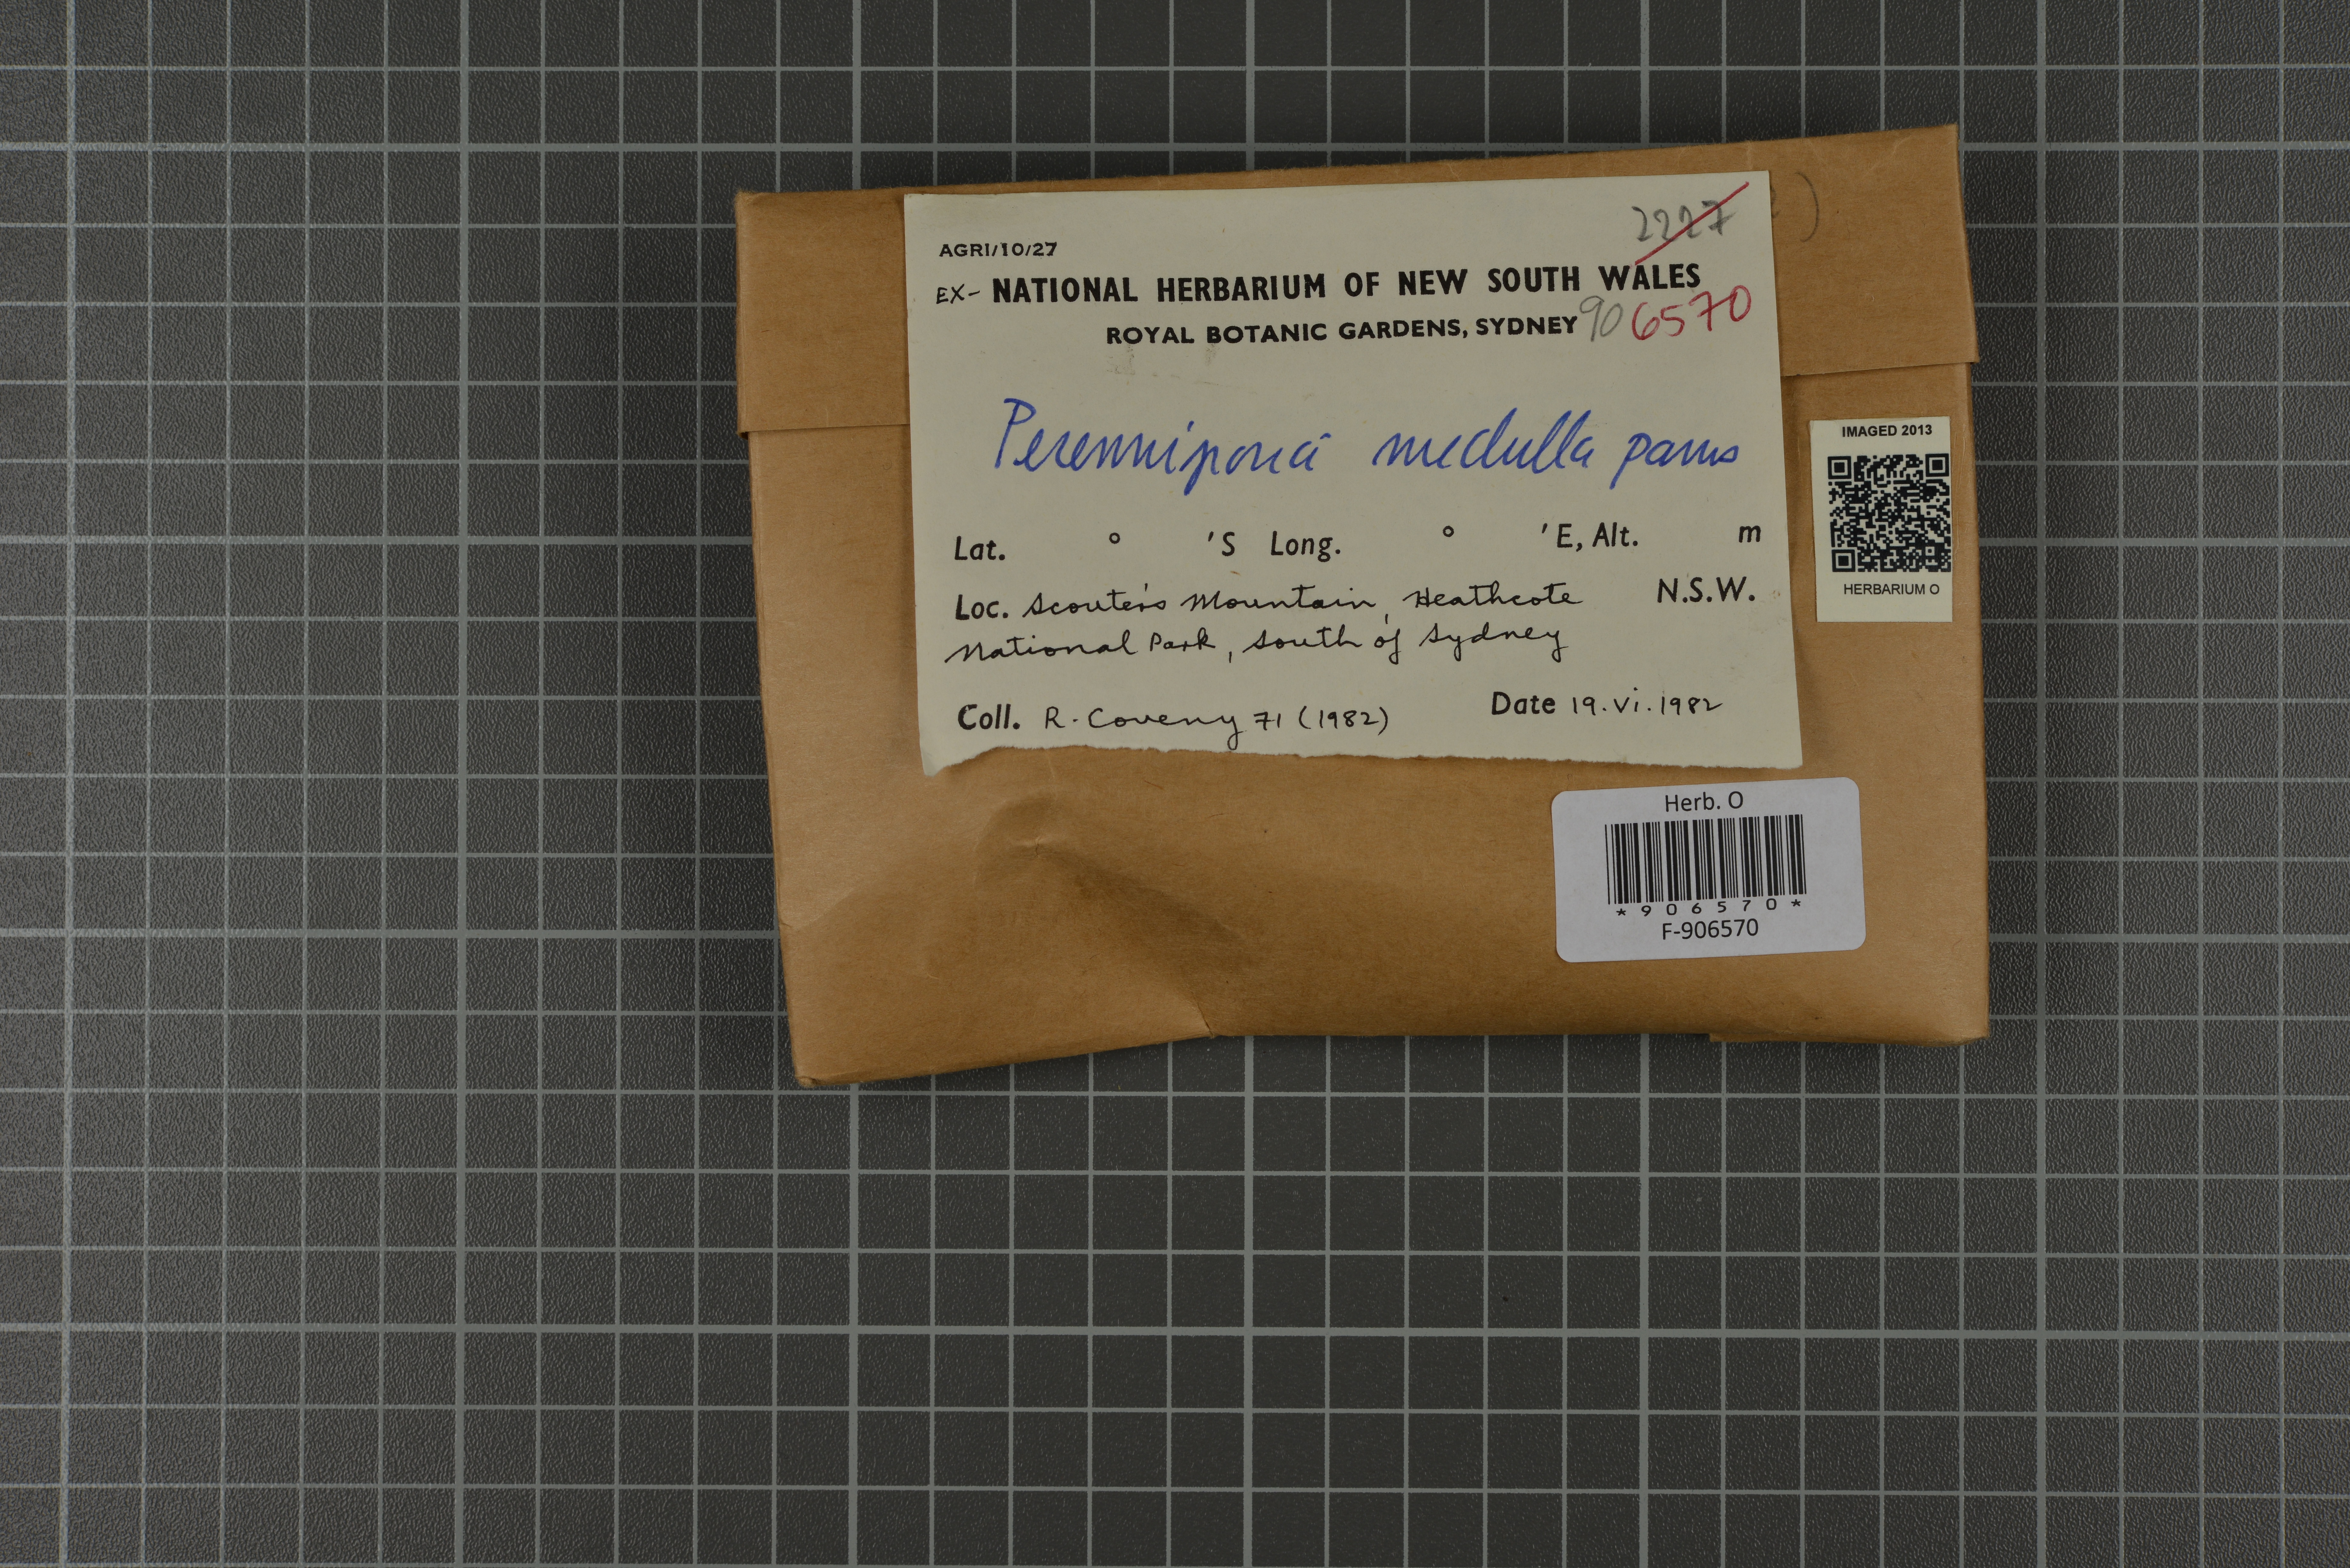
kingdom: Fungi
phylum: Basidiomycota
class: Agaricomycetes
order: Polyporales
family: Polyporaceae
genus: Perenniporia
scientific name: Perenniporia medulla-panis
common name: Pancake crust
